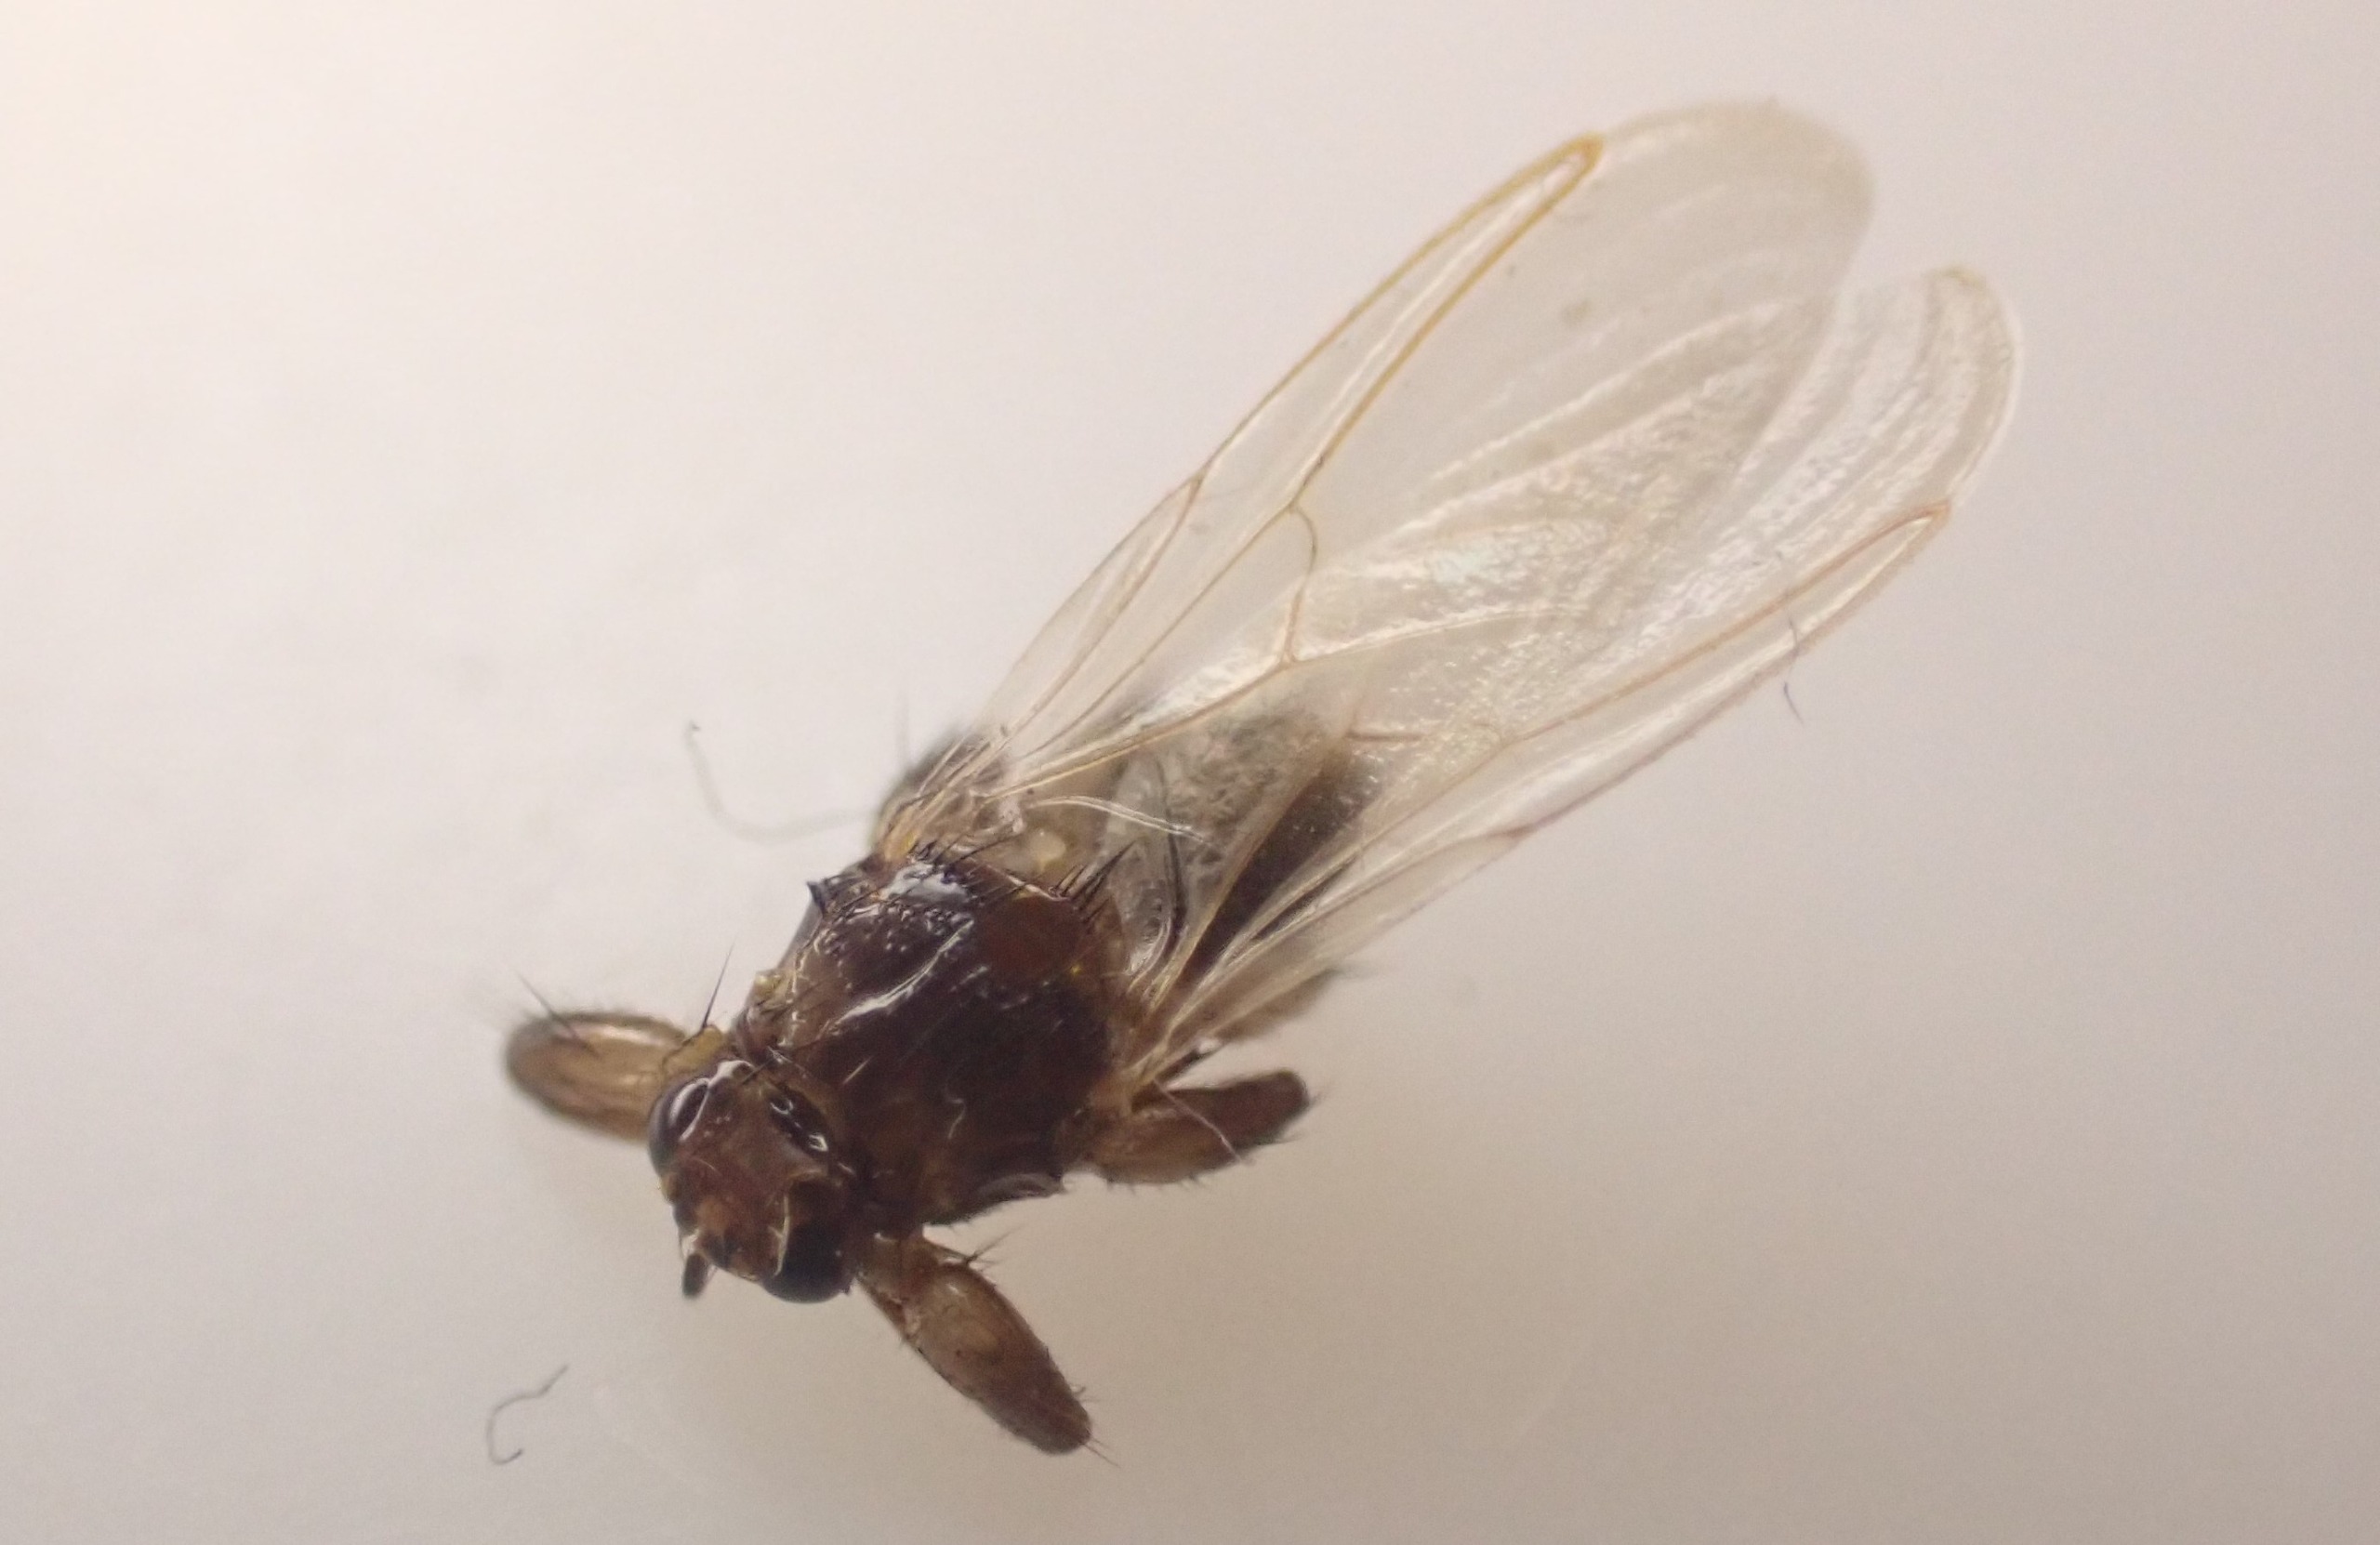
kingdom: Animalia
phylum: Arthropoda
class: Insecta
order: Diptera
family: Hippoboscidae
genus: Lipoptena
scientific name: Lipoptena cervi
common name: Hjortelus
